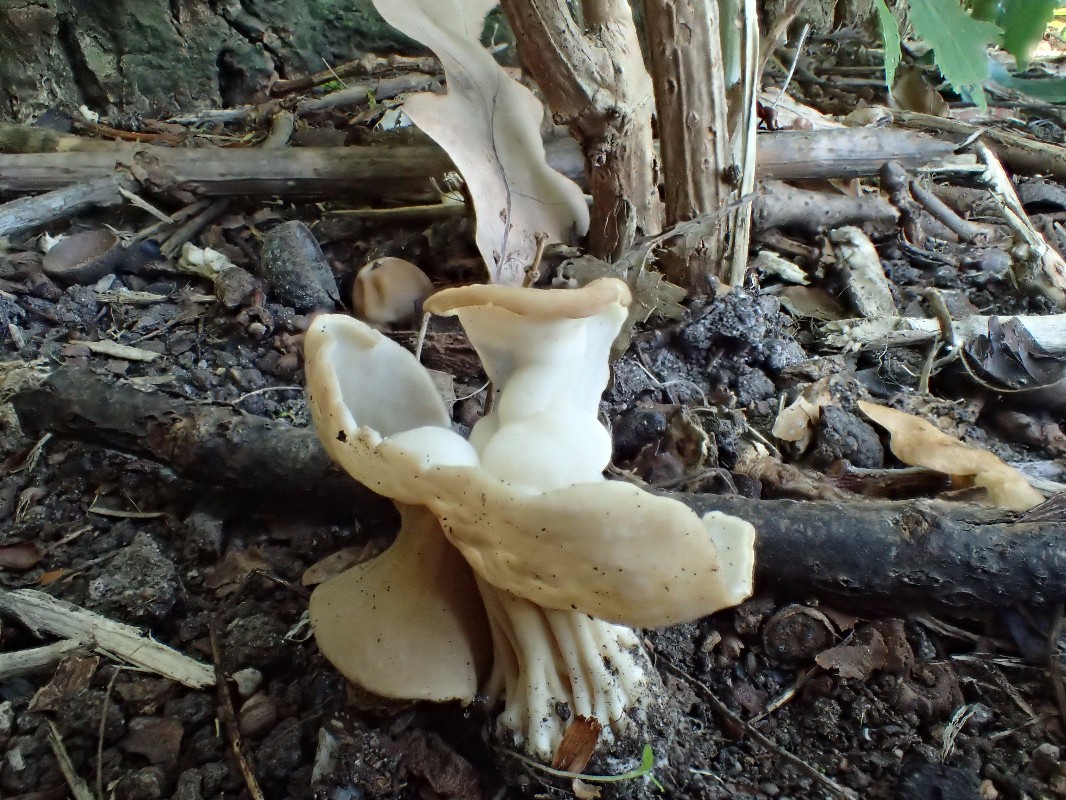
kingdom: Fungi
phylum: Ascomycota
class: Pezizomycetes
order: Pezizales
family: Helvellaceae
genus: Helvella
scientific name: Helvella crispa
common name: kruset foldhat
